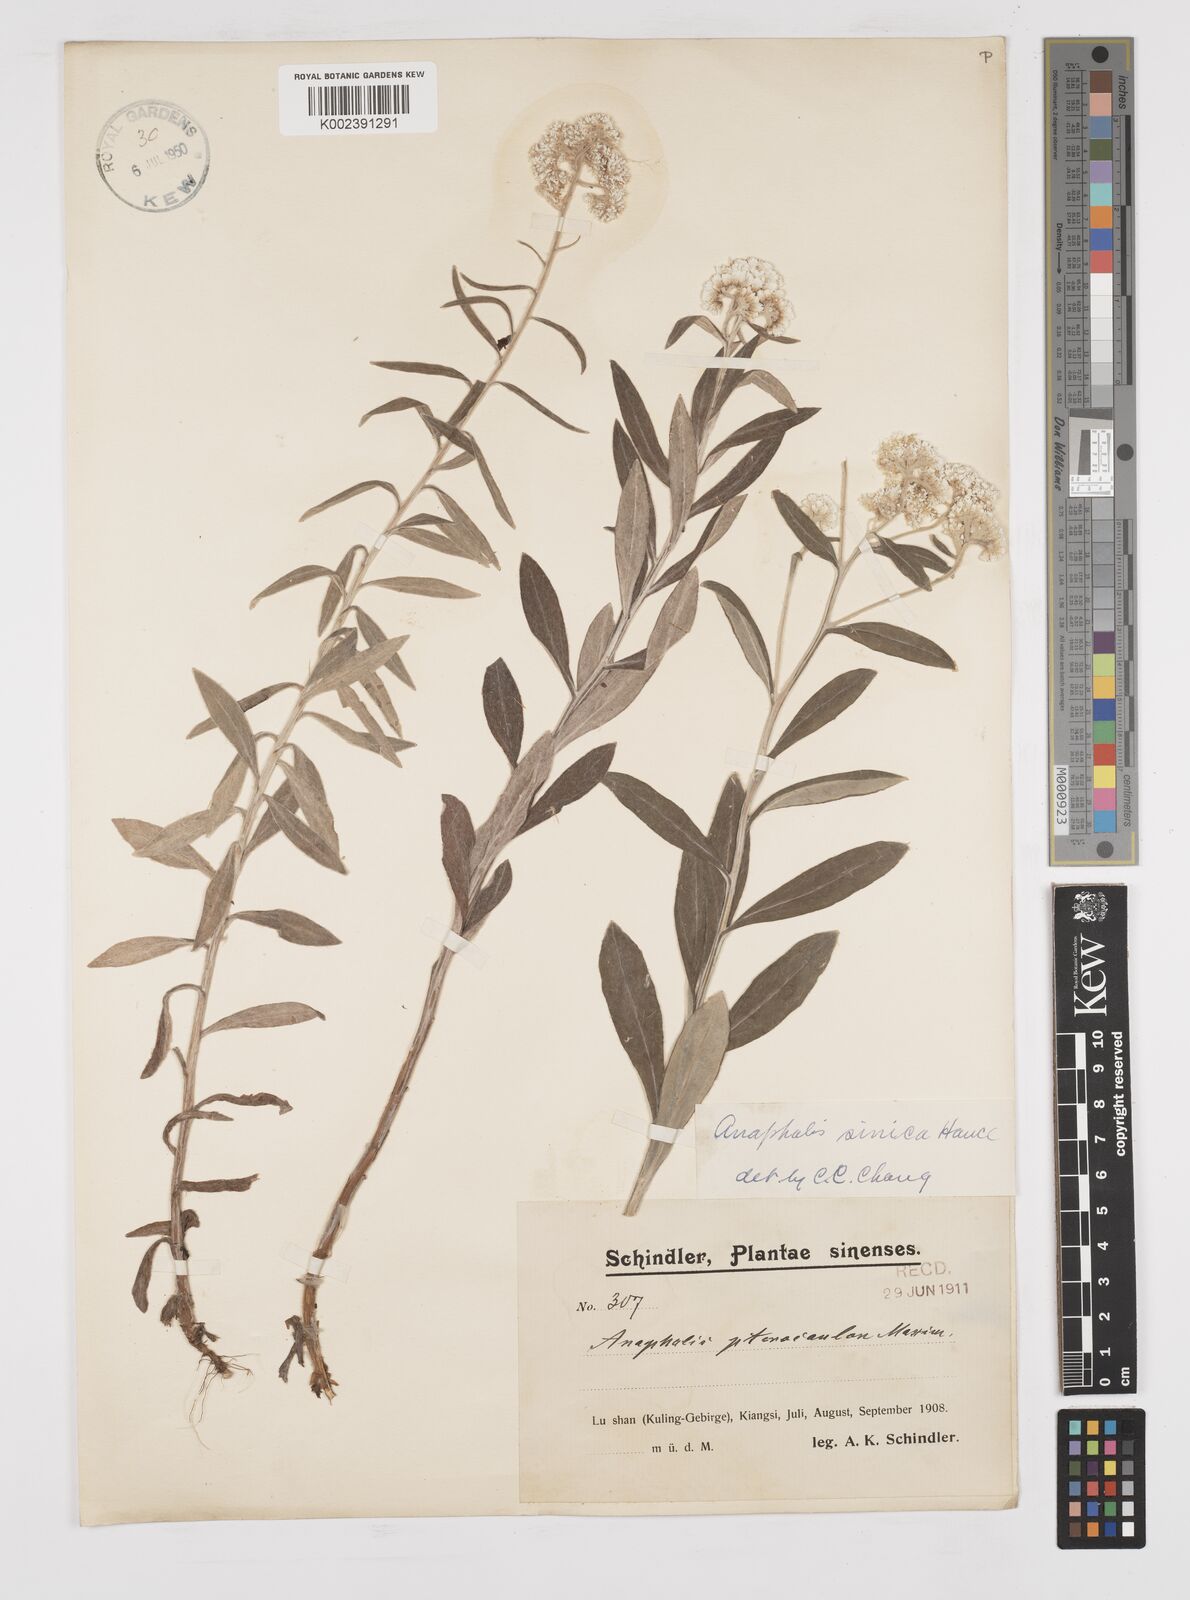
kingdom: Plantae
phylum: Tracheophyta
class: Magnoliopsida
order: Asterales
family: Asteraceae
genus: Anaphalis
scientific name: Anaphalis sinica
